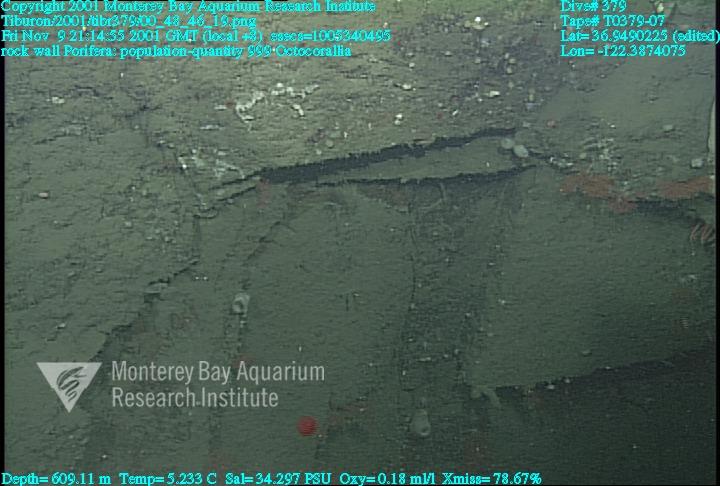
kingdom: Animalia
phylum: Porifera
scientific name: Porifera
